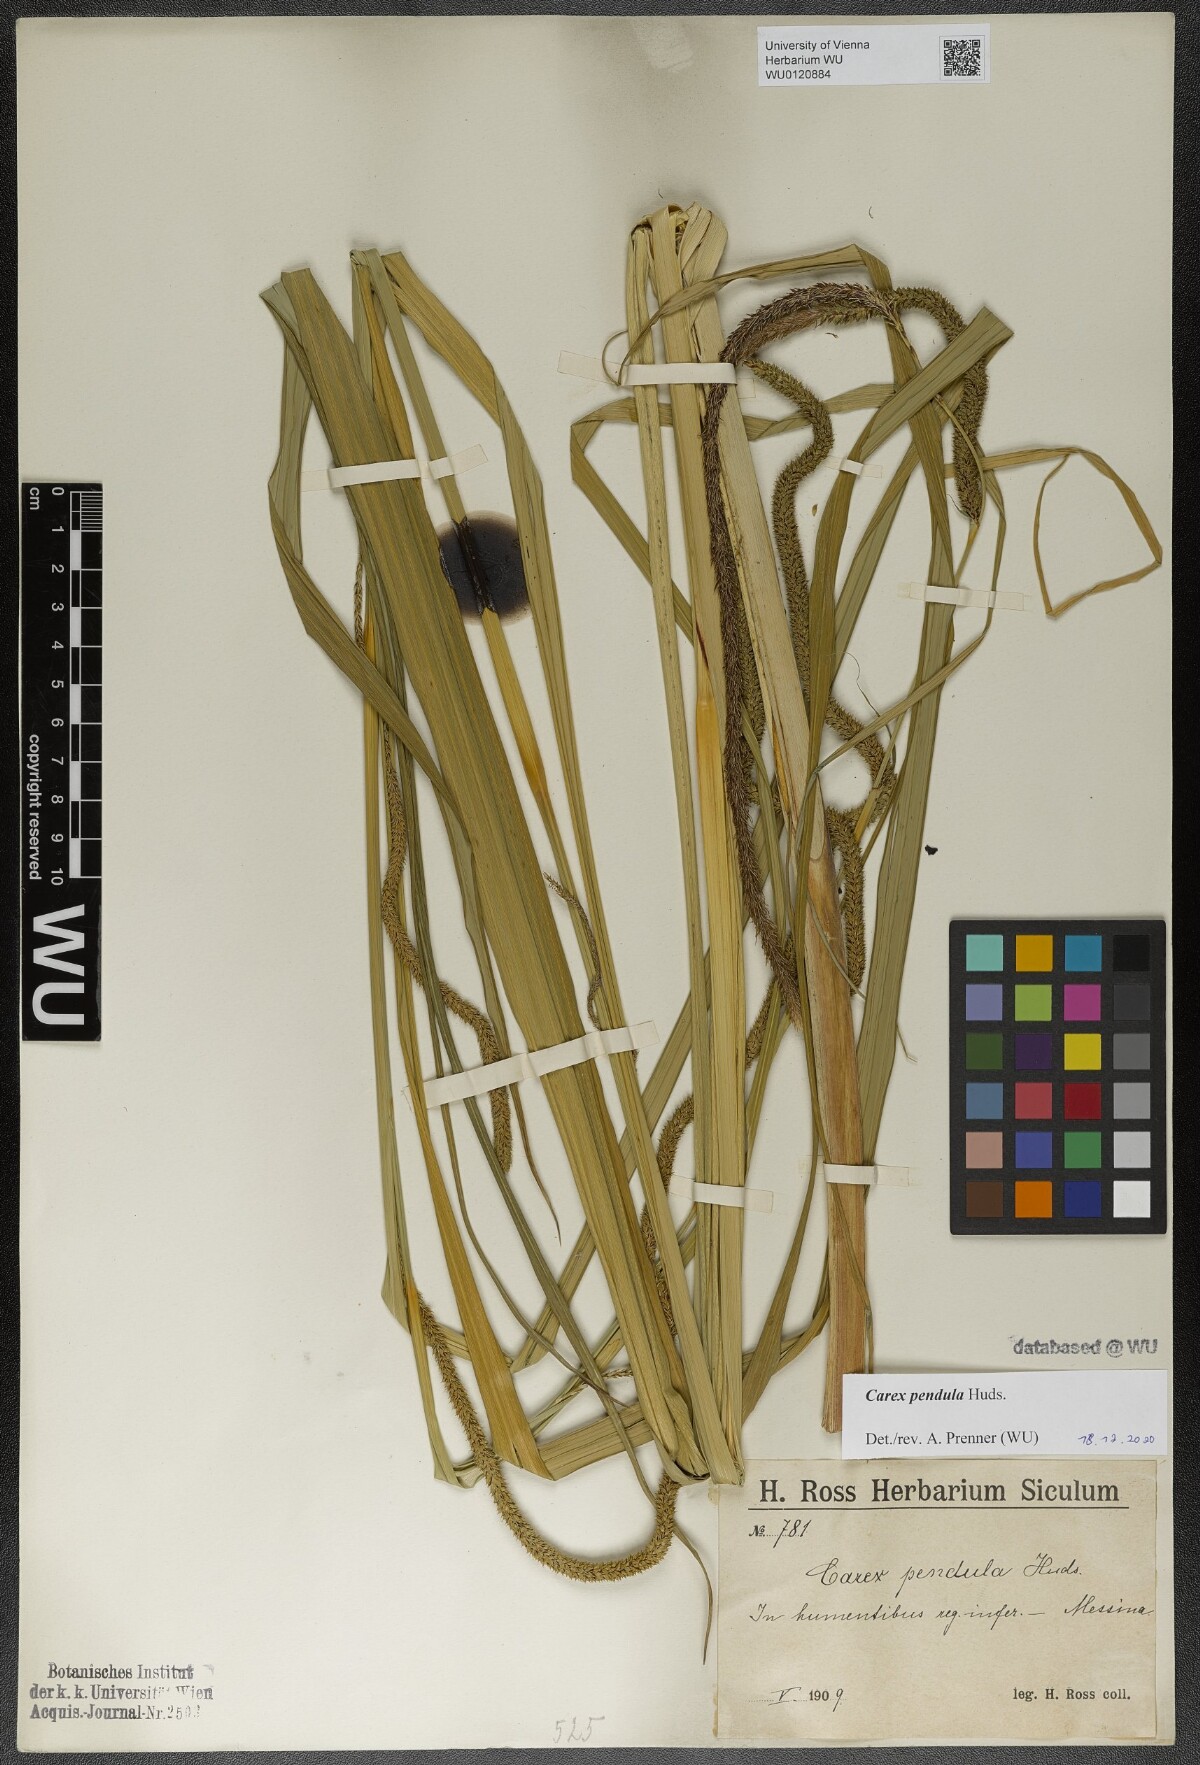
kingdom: Plantae
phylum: Tracheophyta
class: Liliopsida
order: Poales
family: Cyperaceae
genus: Carex
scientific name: Carex pendula
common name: Pendulous sedge
